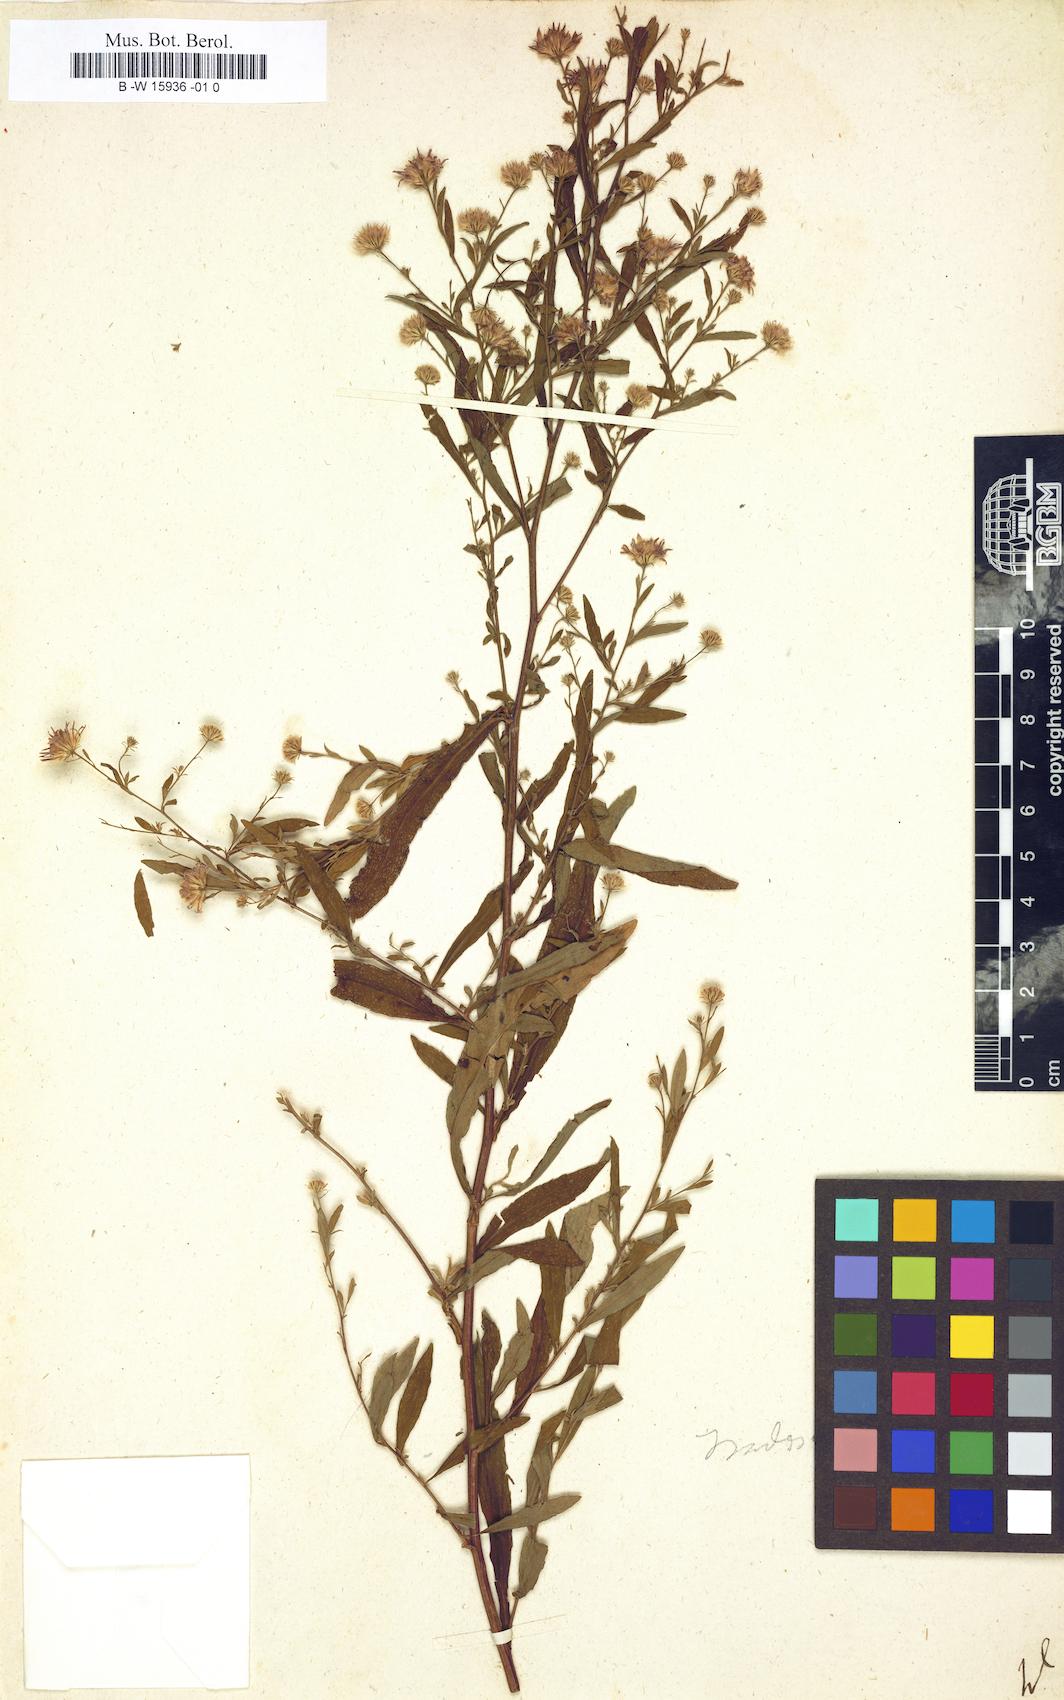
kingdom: Plantae
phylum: Tracheophyta
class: Magnoliopsida
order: Asterales
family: Asteraceae
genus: Aster
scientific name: Aster
